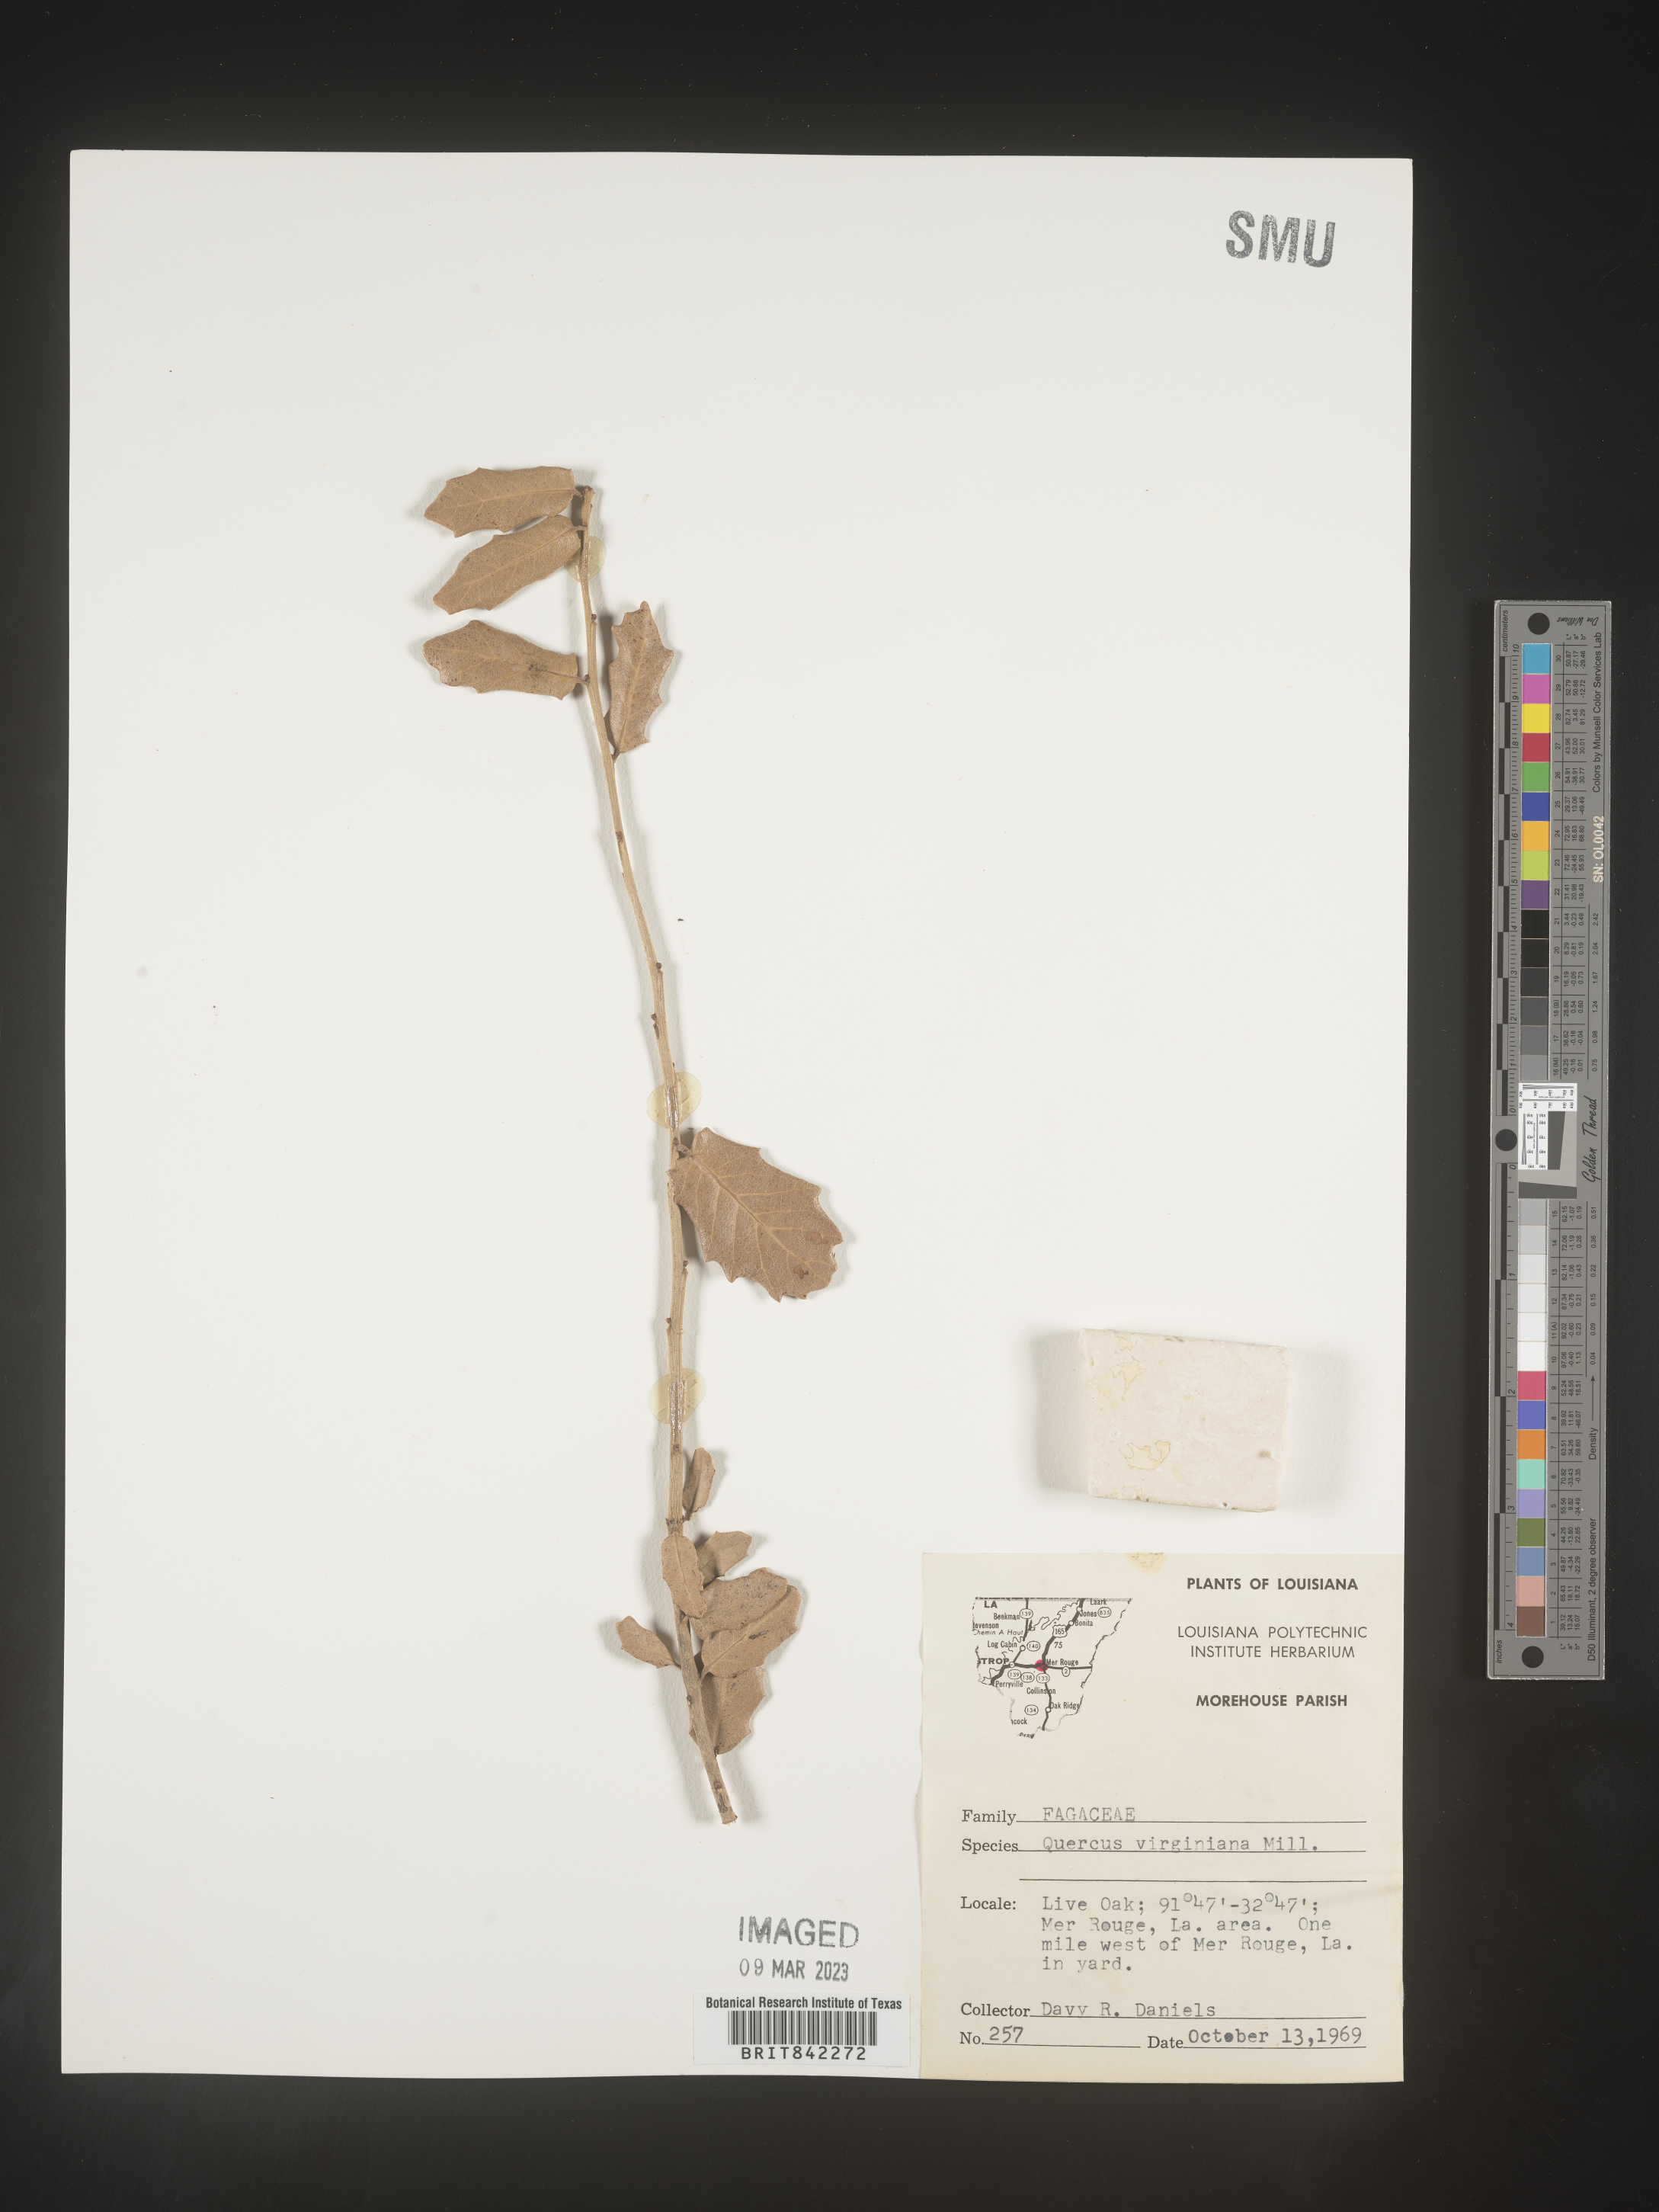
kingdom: Plantae
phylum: Tracheophyta
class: Magnoliopsida
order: Fagales
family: Fagaceae
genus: Quercus
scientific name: Quercus virginiana
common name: Southern live oak
